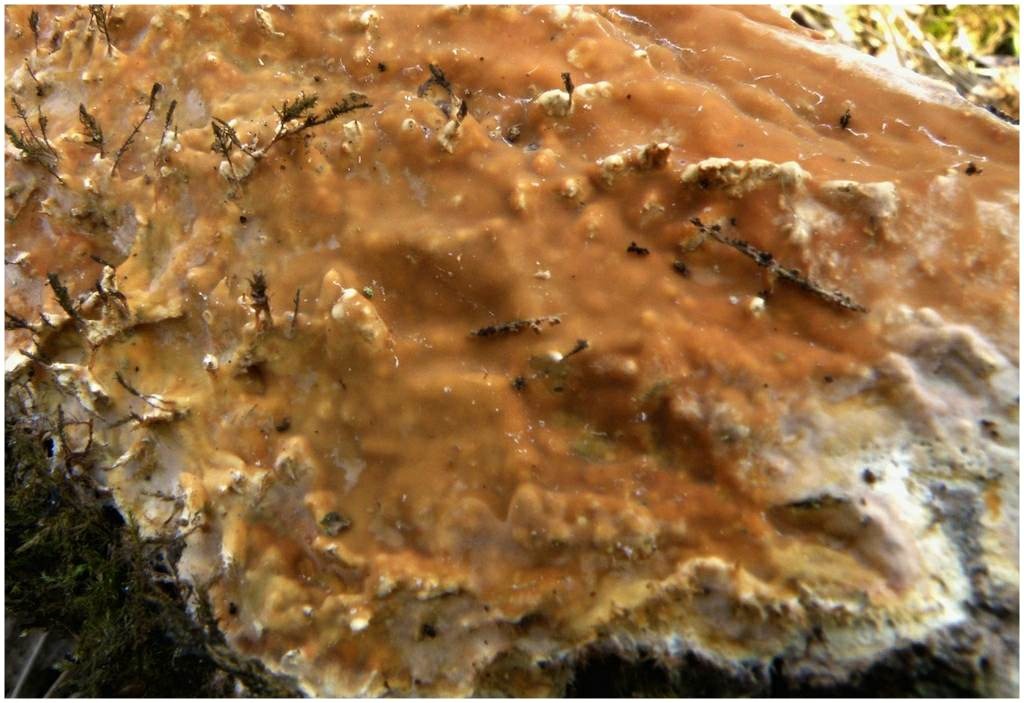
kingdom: Fungi
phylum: Basidiomycota
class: Agaricomycetes
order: Russulales
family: Peniophoraceae
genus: Scytinostroma
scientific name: Scytinostroma hemidichophyticum
